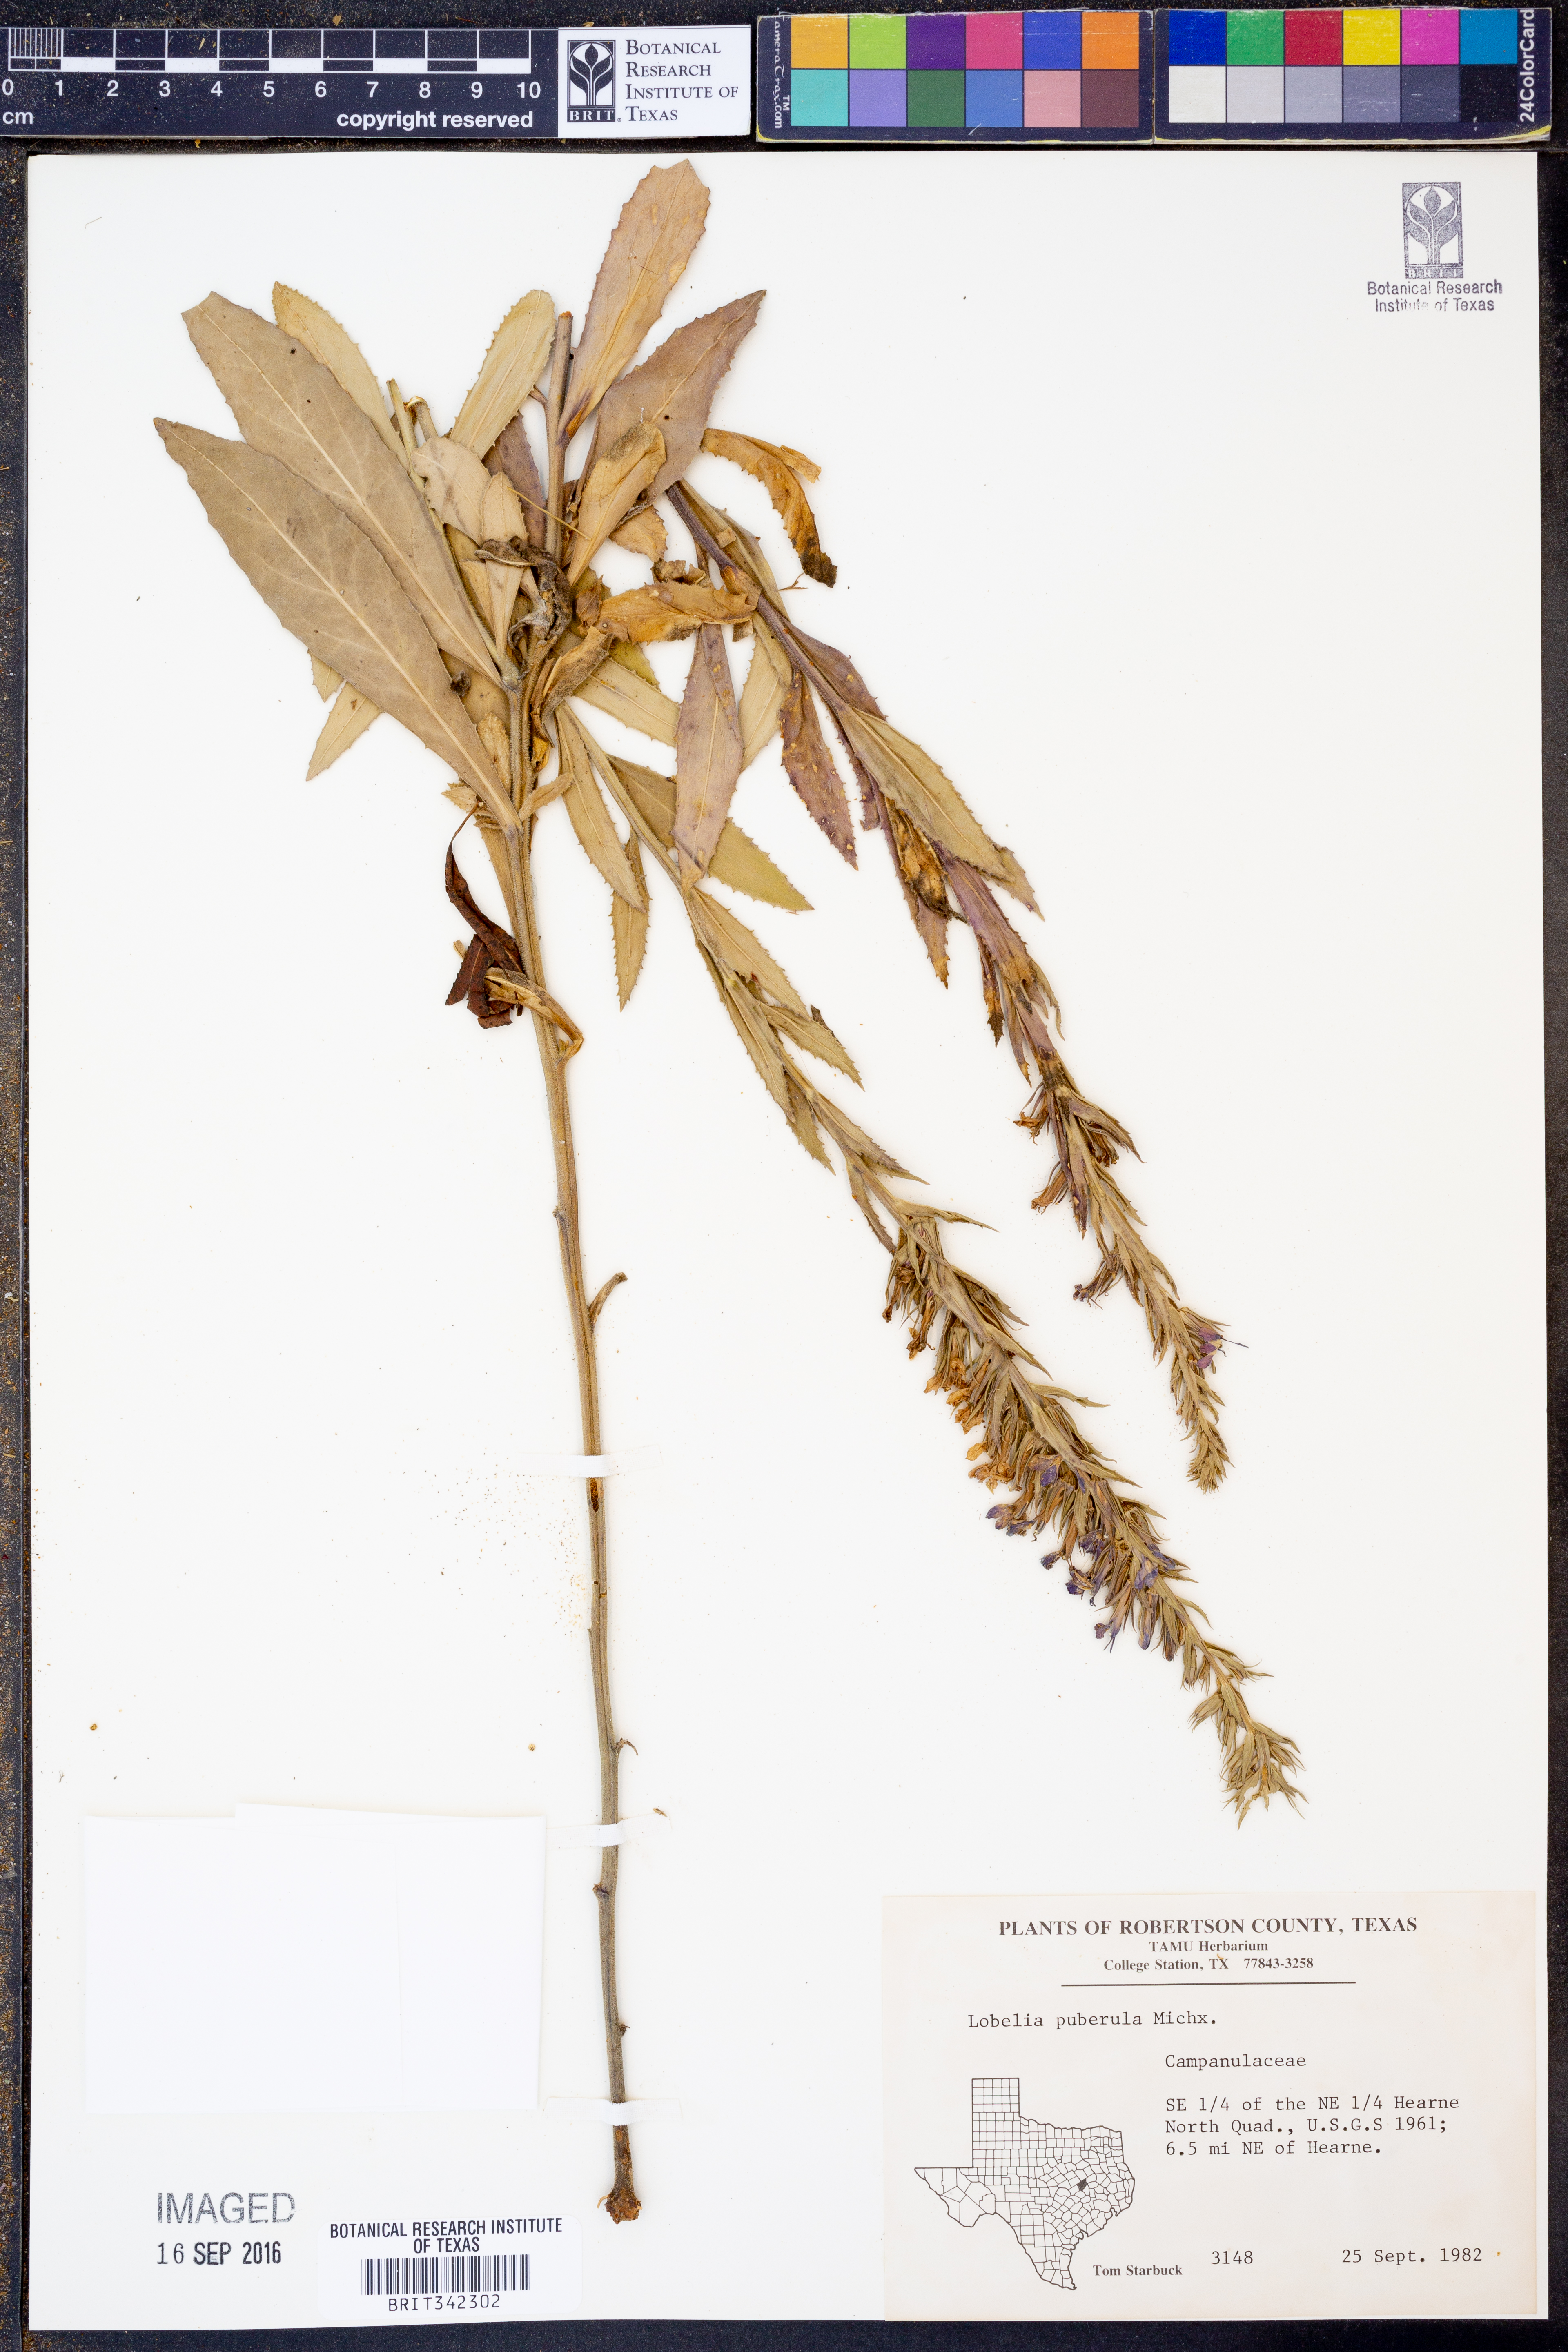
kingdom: Plantae
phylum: Tracheophyta
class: Magnoliopsida
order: Asterales
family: Campanulaceae
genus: Lobelia
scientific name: Lobelia puberula
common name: Purple dewdrop
